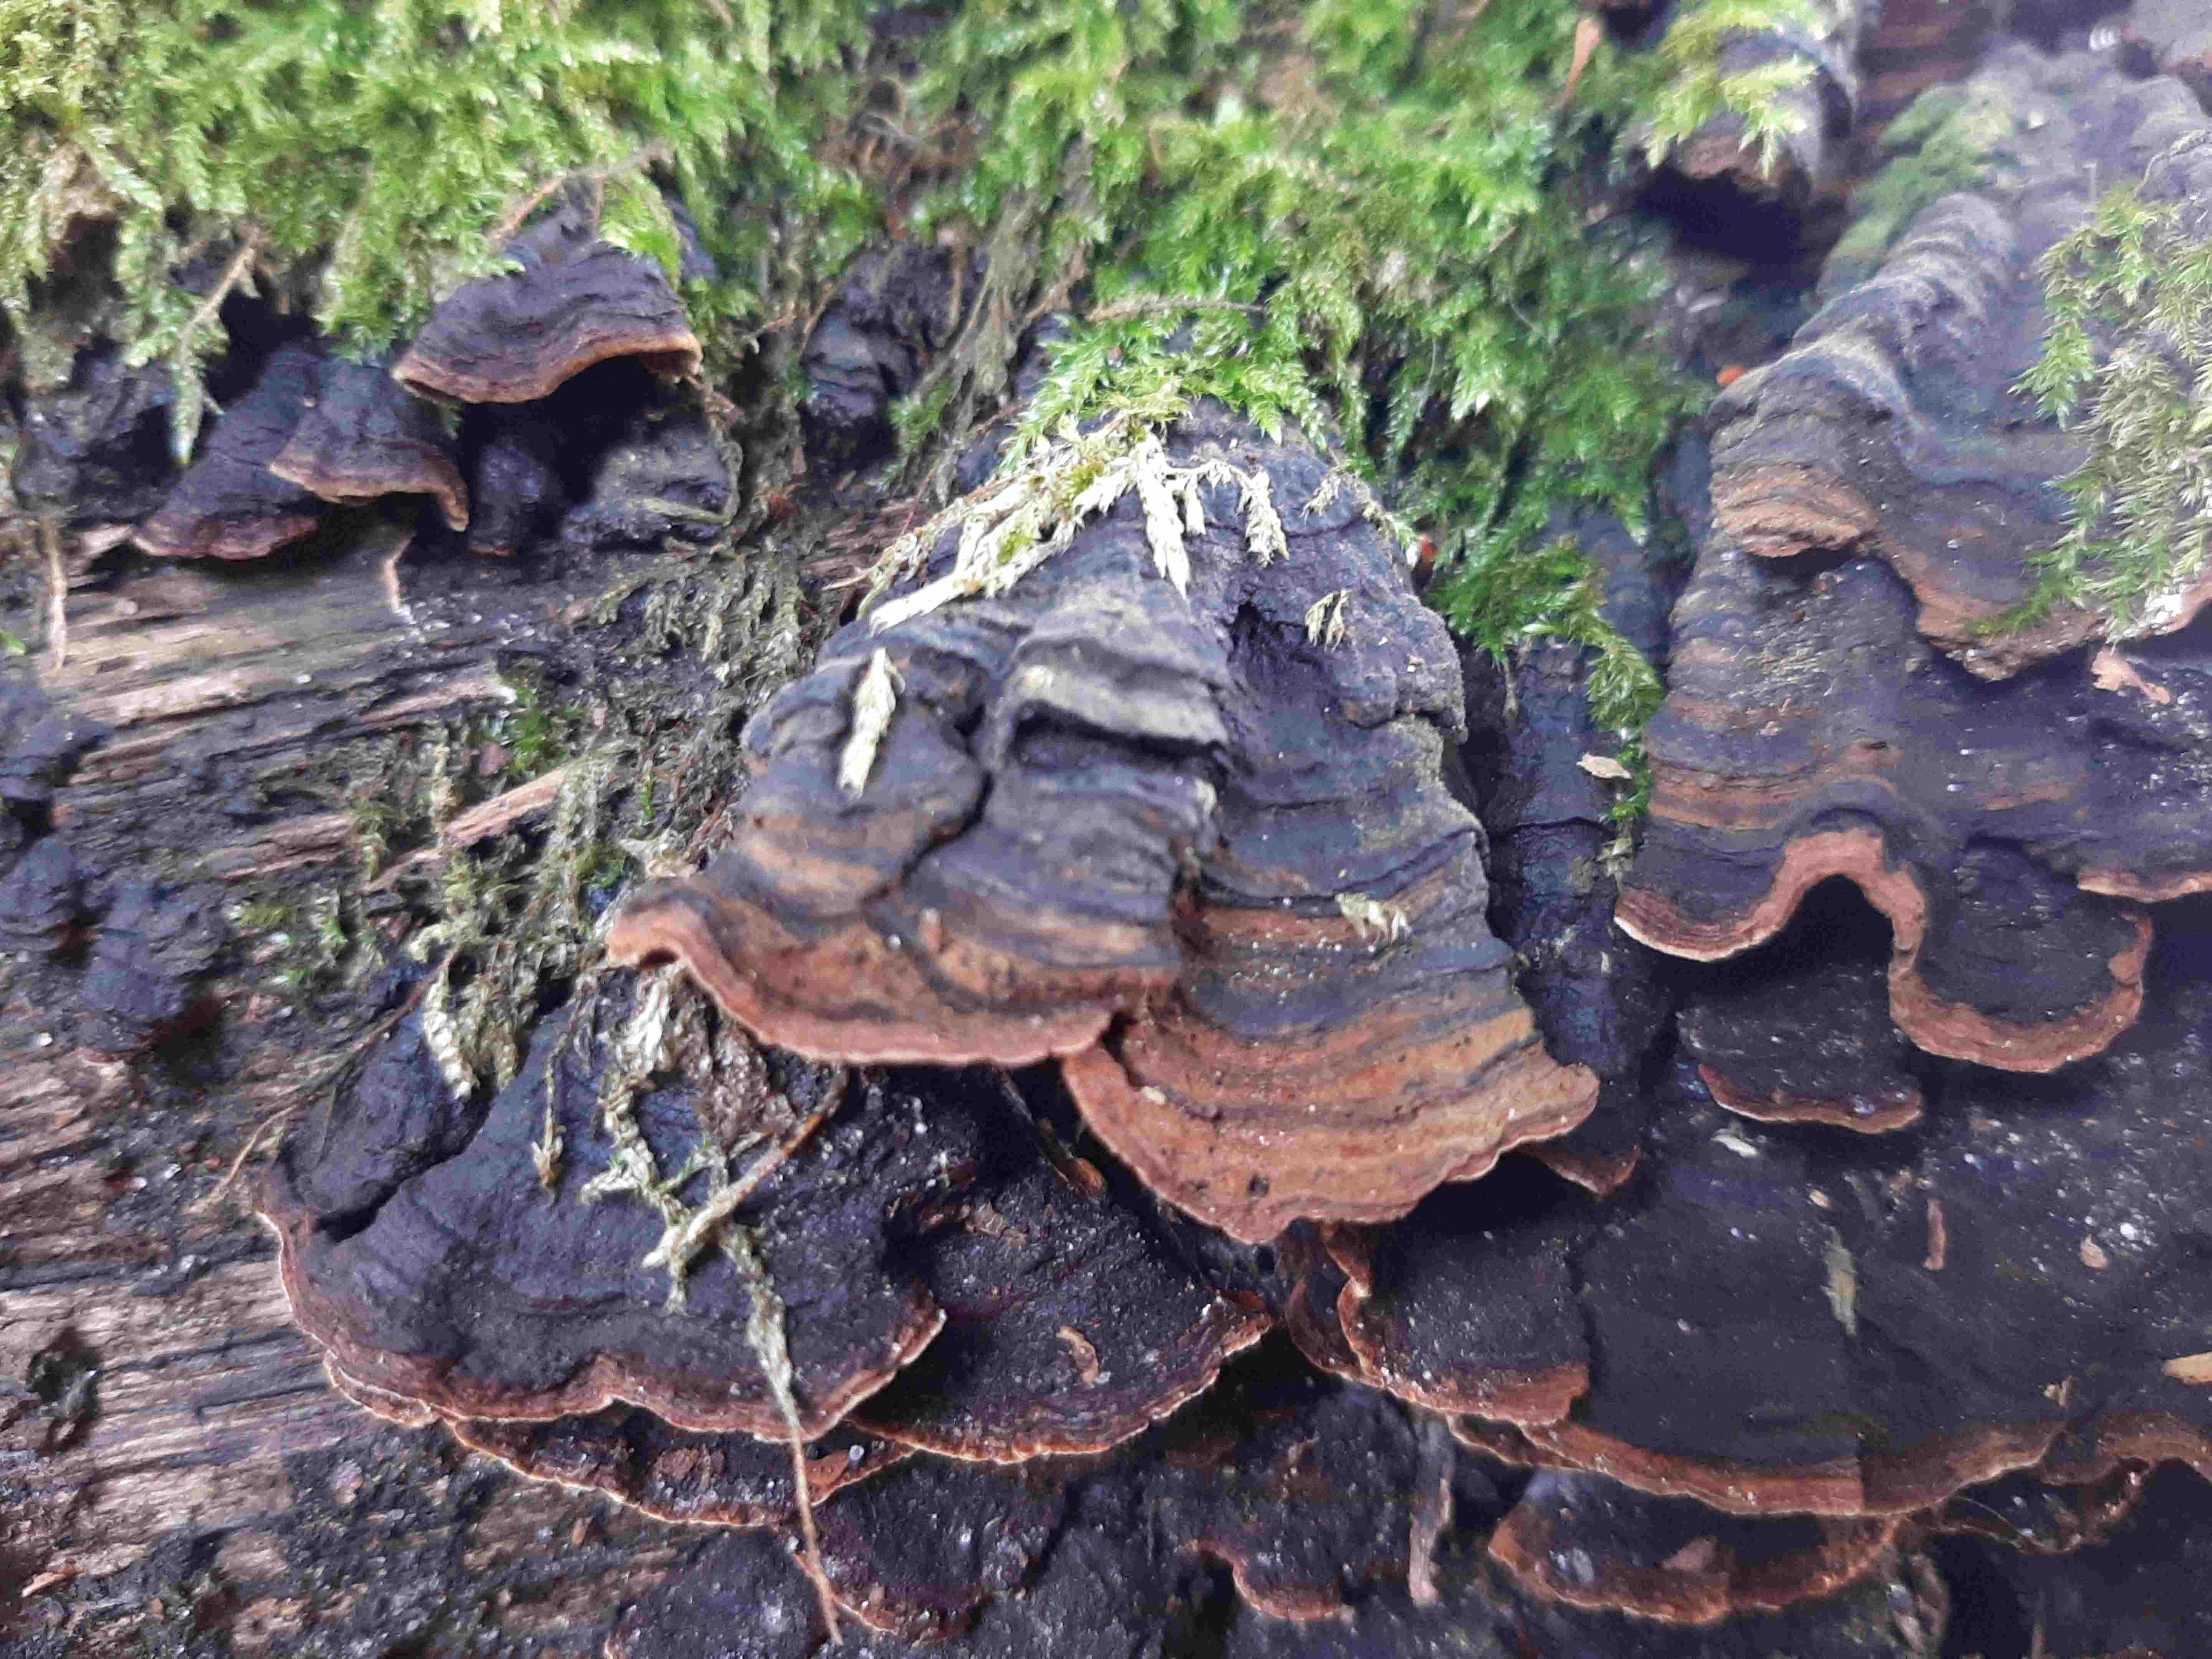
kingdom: Fungi
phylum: Basidiomycota
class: Agaricomycetes
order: Hymenochaetales
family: Hymenochaetaceae
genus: Hymenochaete
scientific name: Hymenochaete rubiginosa
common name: stiv ruslædersvamp
